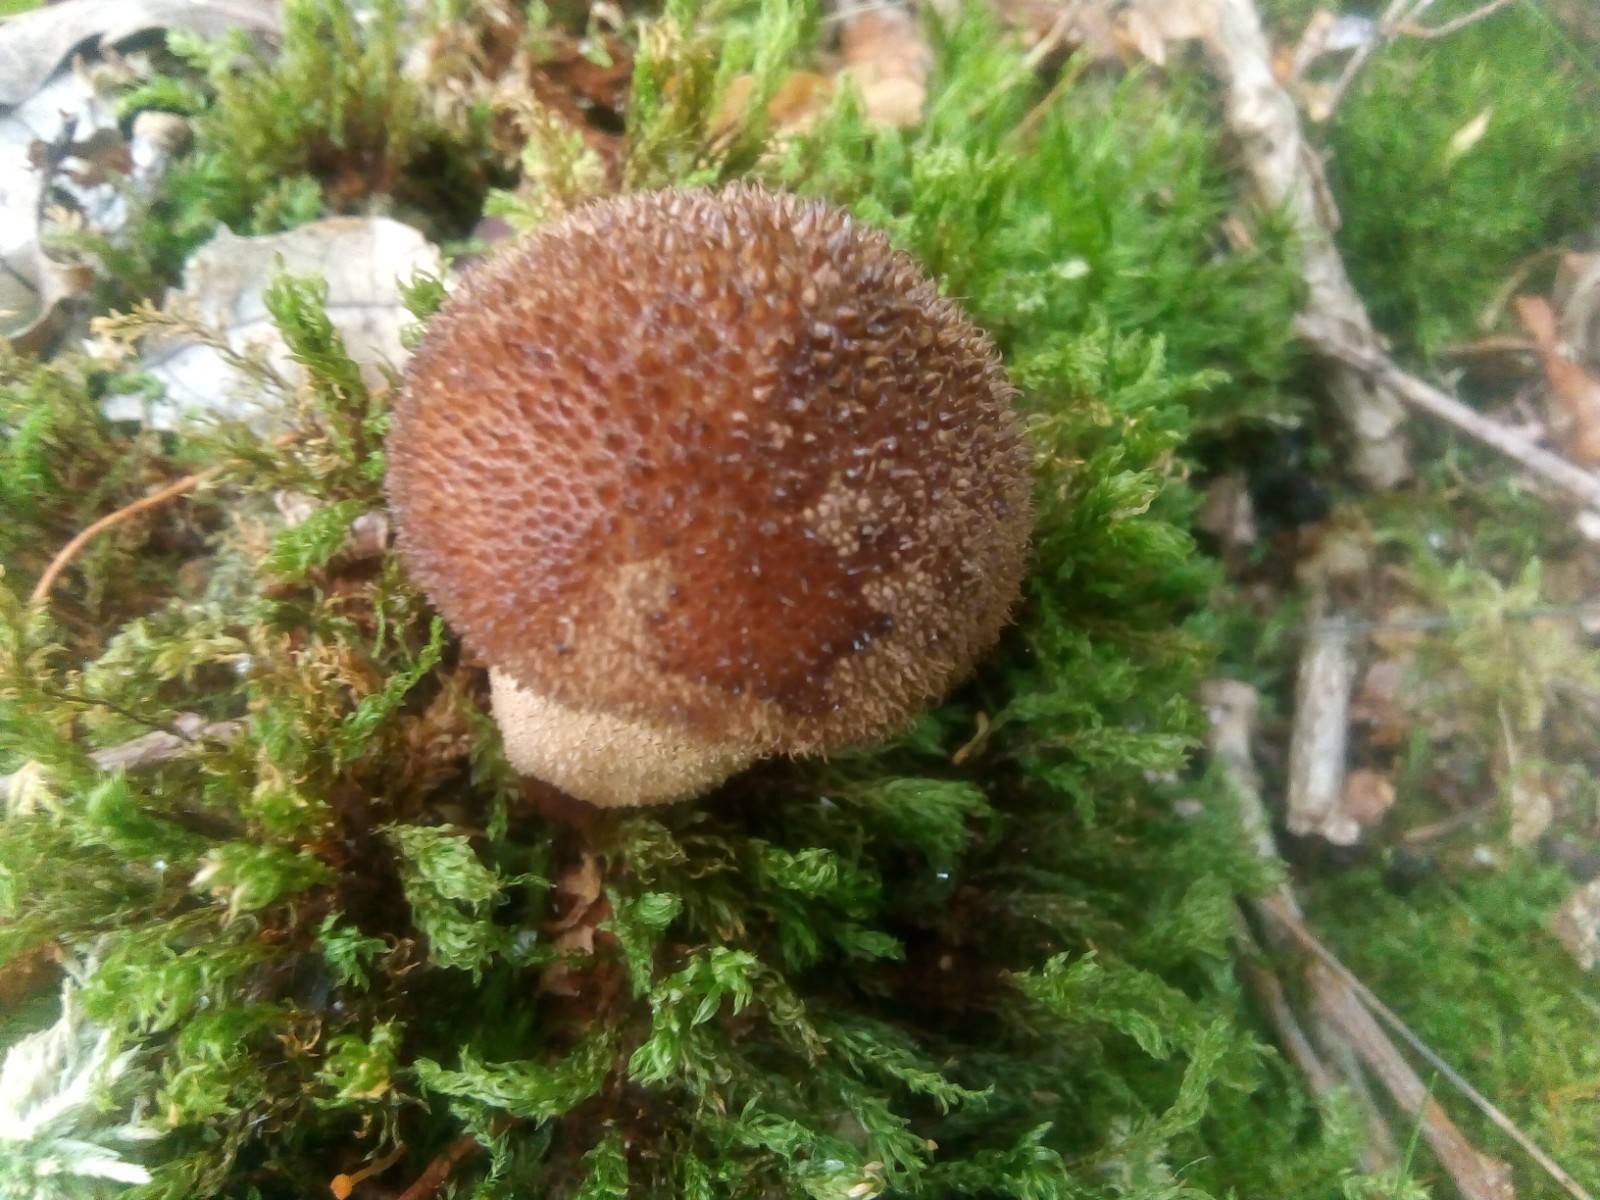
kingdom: Fungi
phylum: Basidiomycota
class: Agaricomycetes
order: Agaricales
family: Lycoperdaceae
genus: Lycoperdon
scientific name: Lycoperdon nigrescens
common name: sortagtig støvbold
